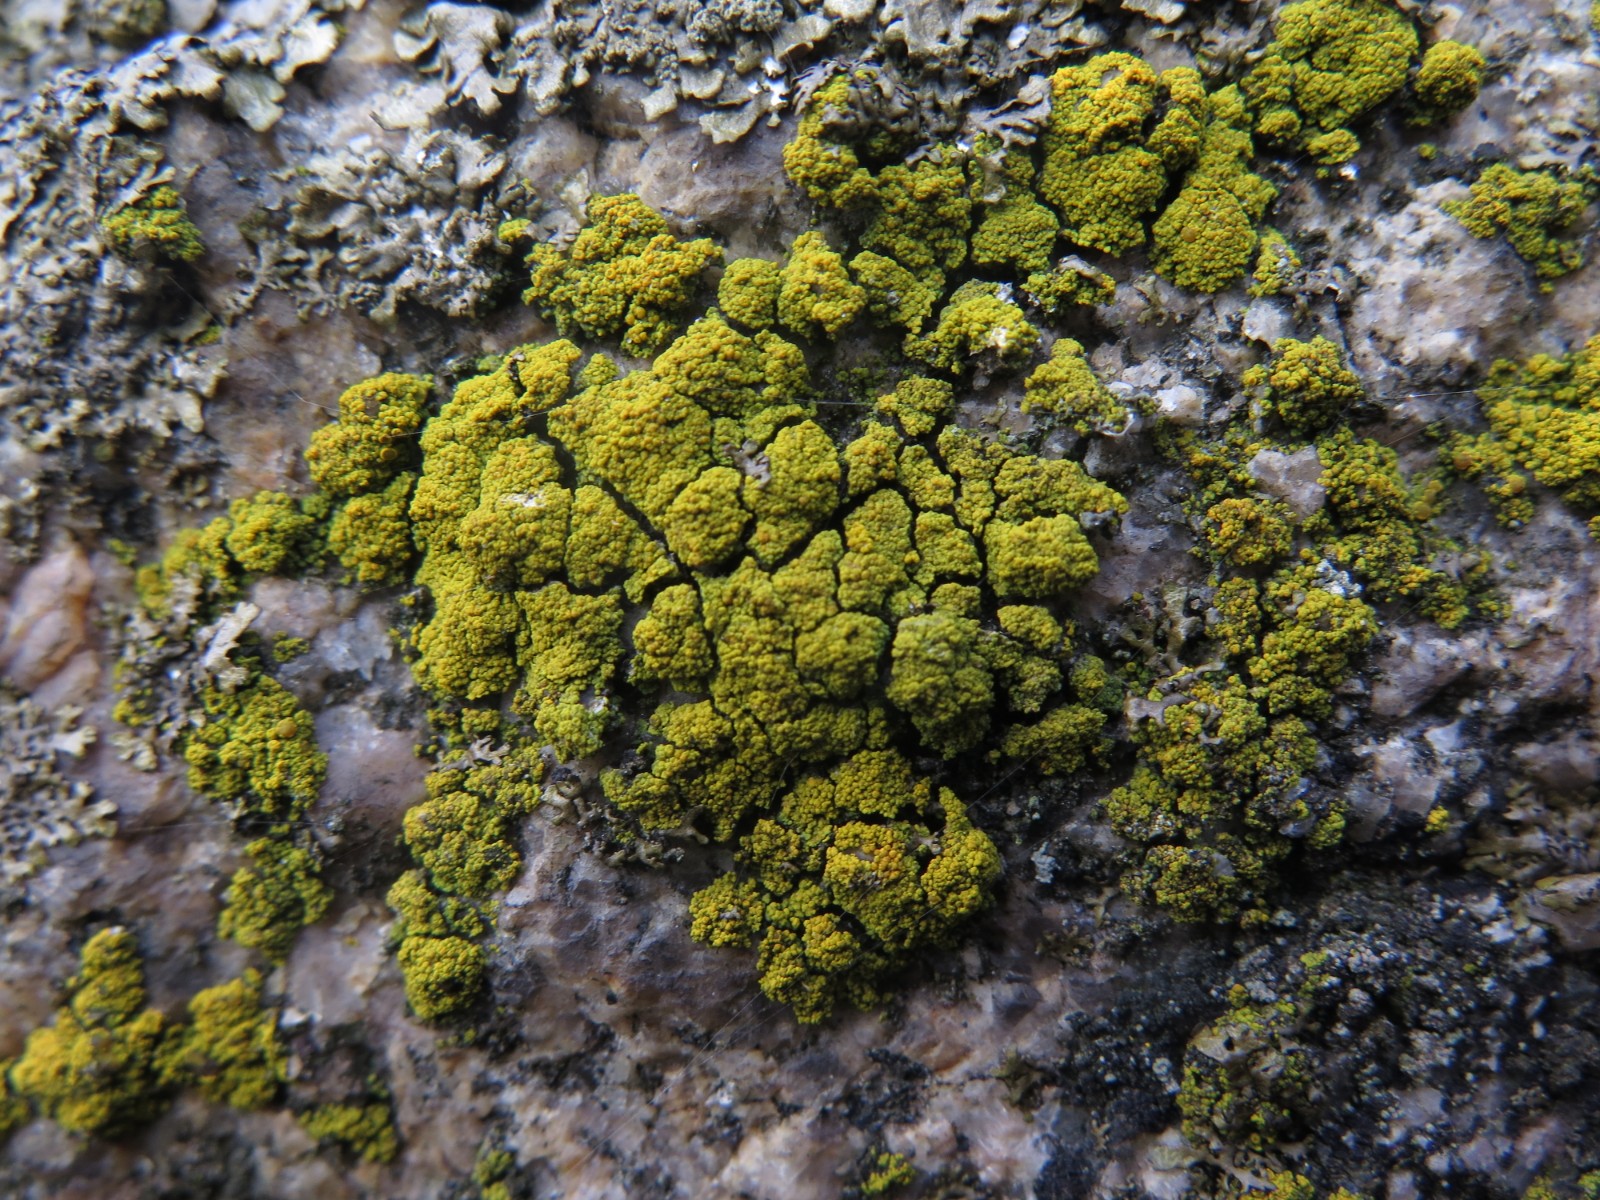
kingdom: Fungi
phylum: Ascomycota
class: Candelariomycetes
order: Candelariales
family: Candelariaceae
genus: Candelariella
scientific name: Candelariella vitellina
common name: almindelig æggeblommelav
